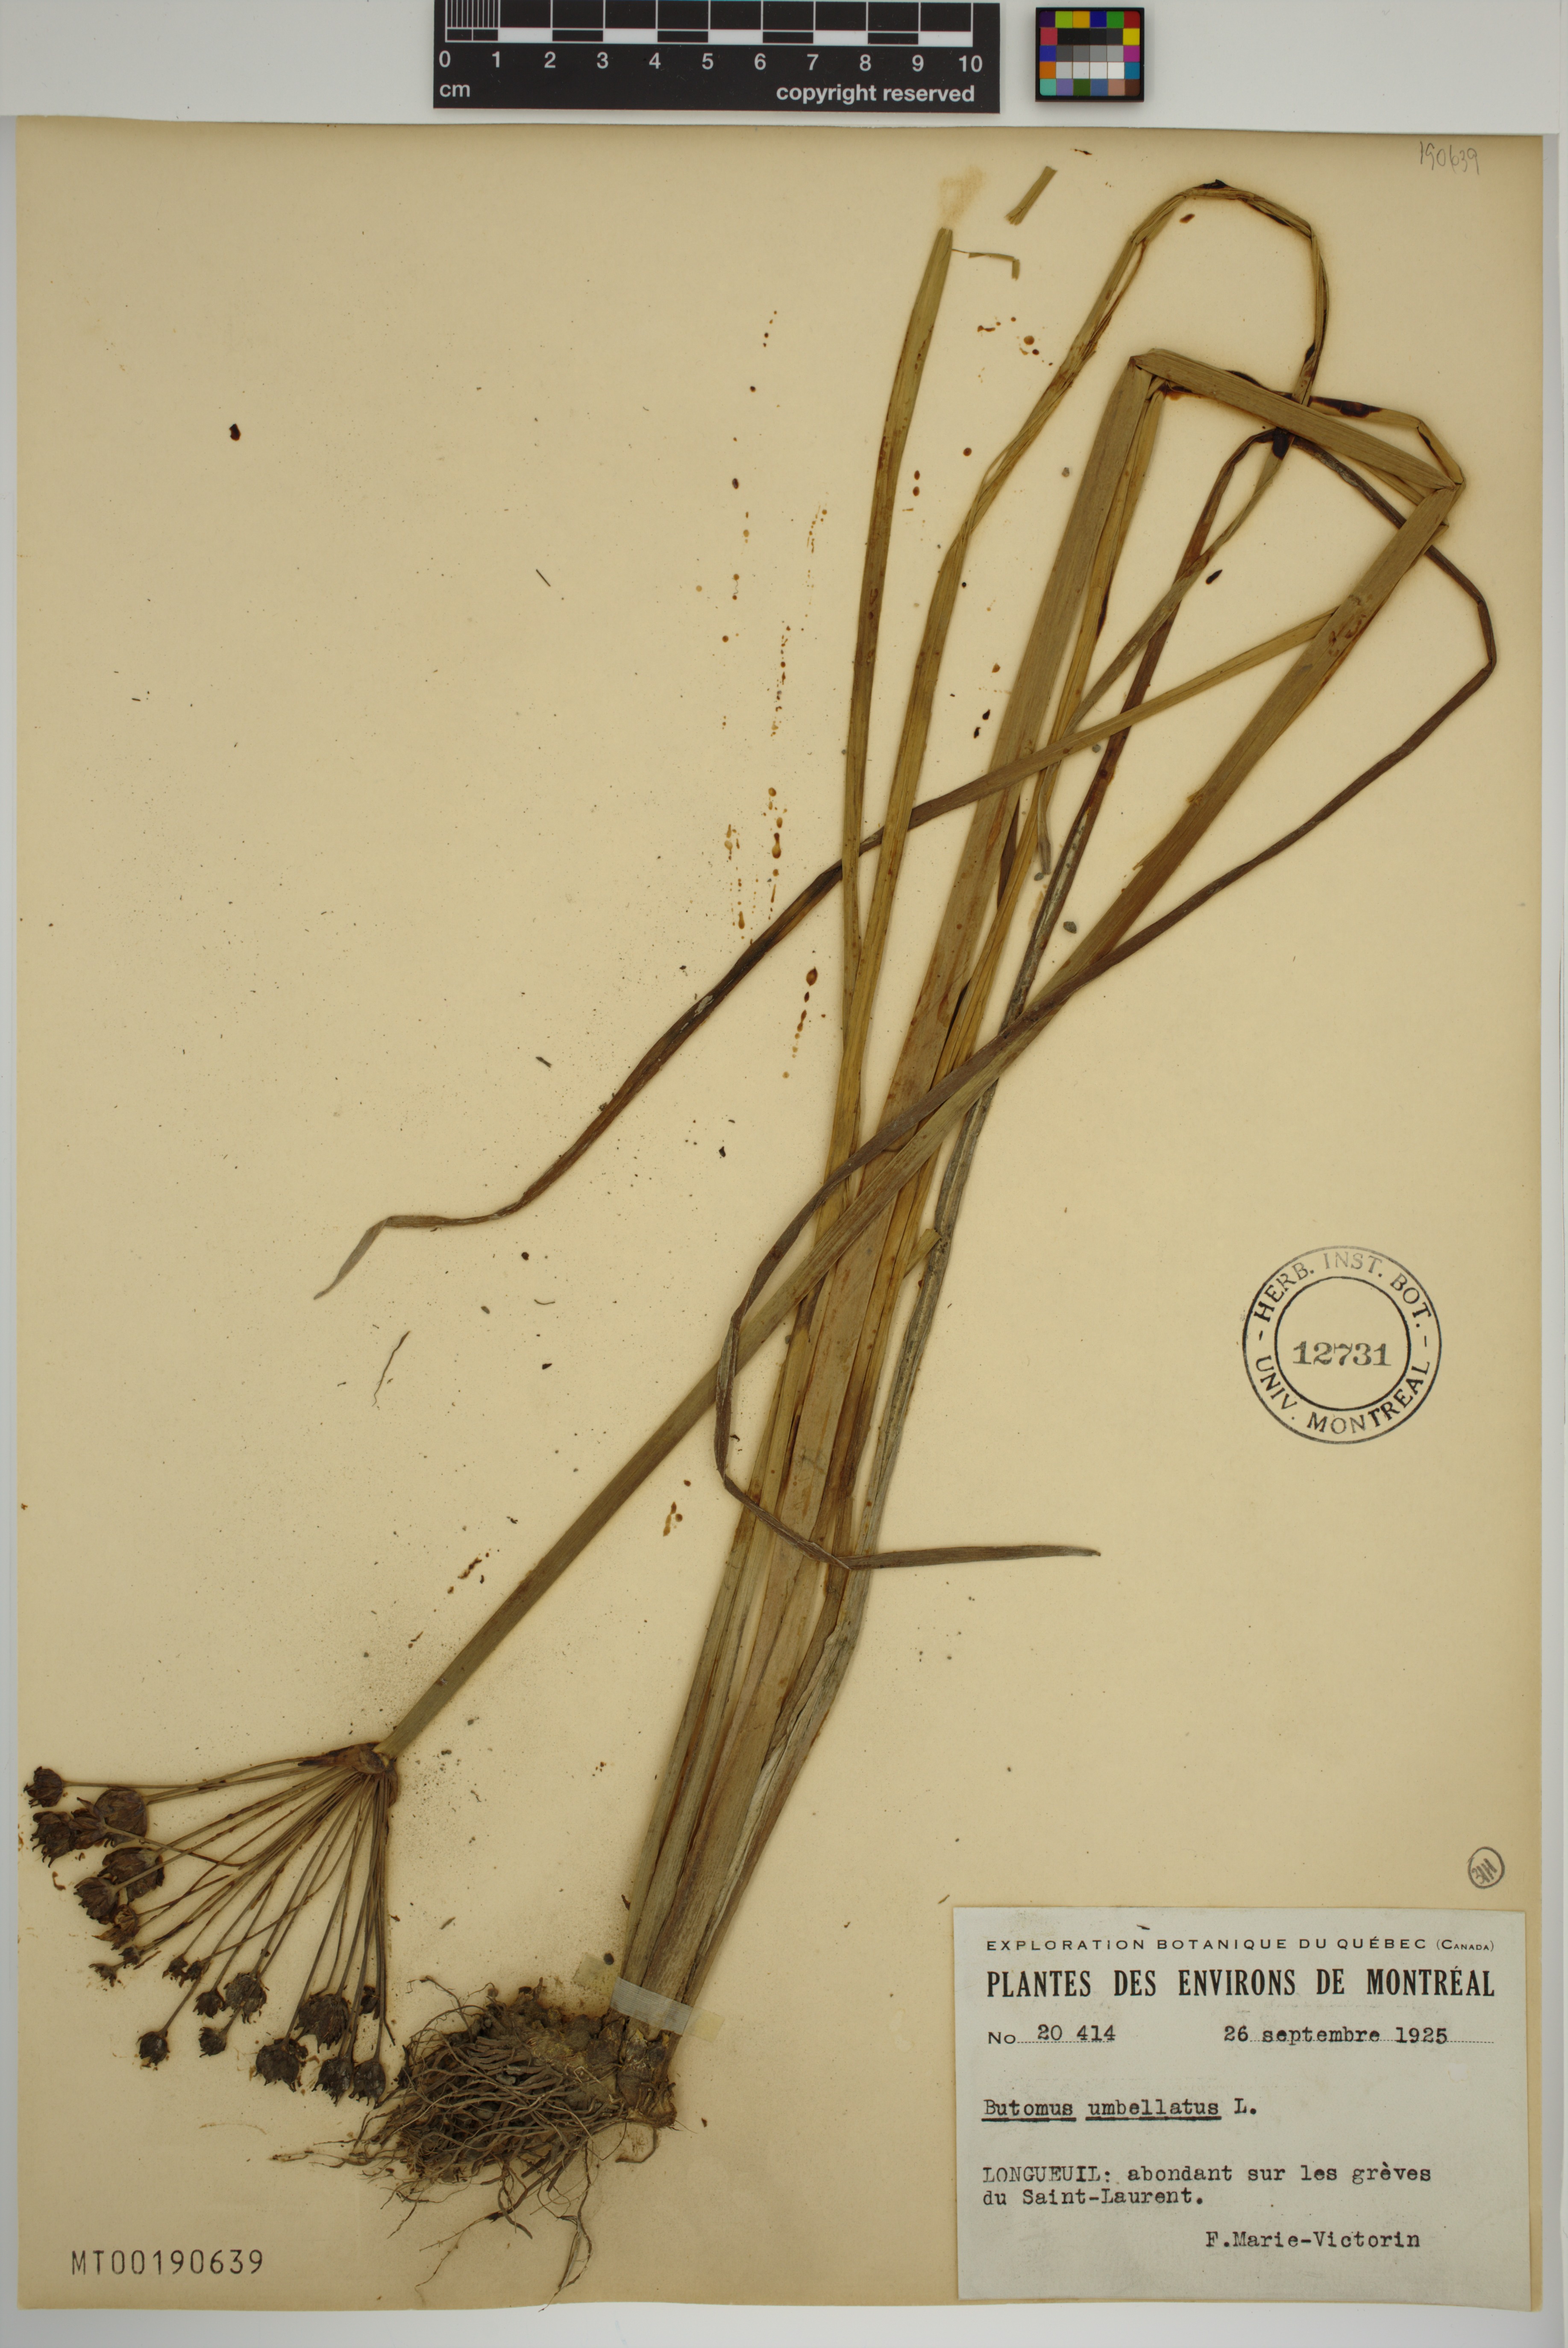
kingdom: Plantae
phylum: Tracheophyta
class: Liliopsida
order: Alismatales
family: Butomaceae
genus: Butomus
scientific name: Butomus umbellatus
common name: Flowering-rush
